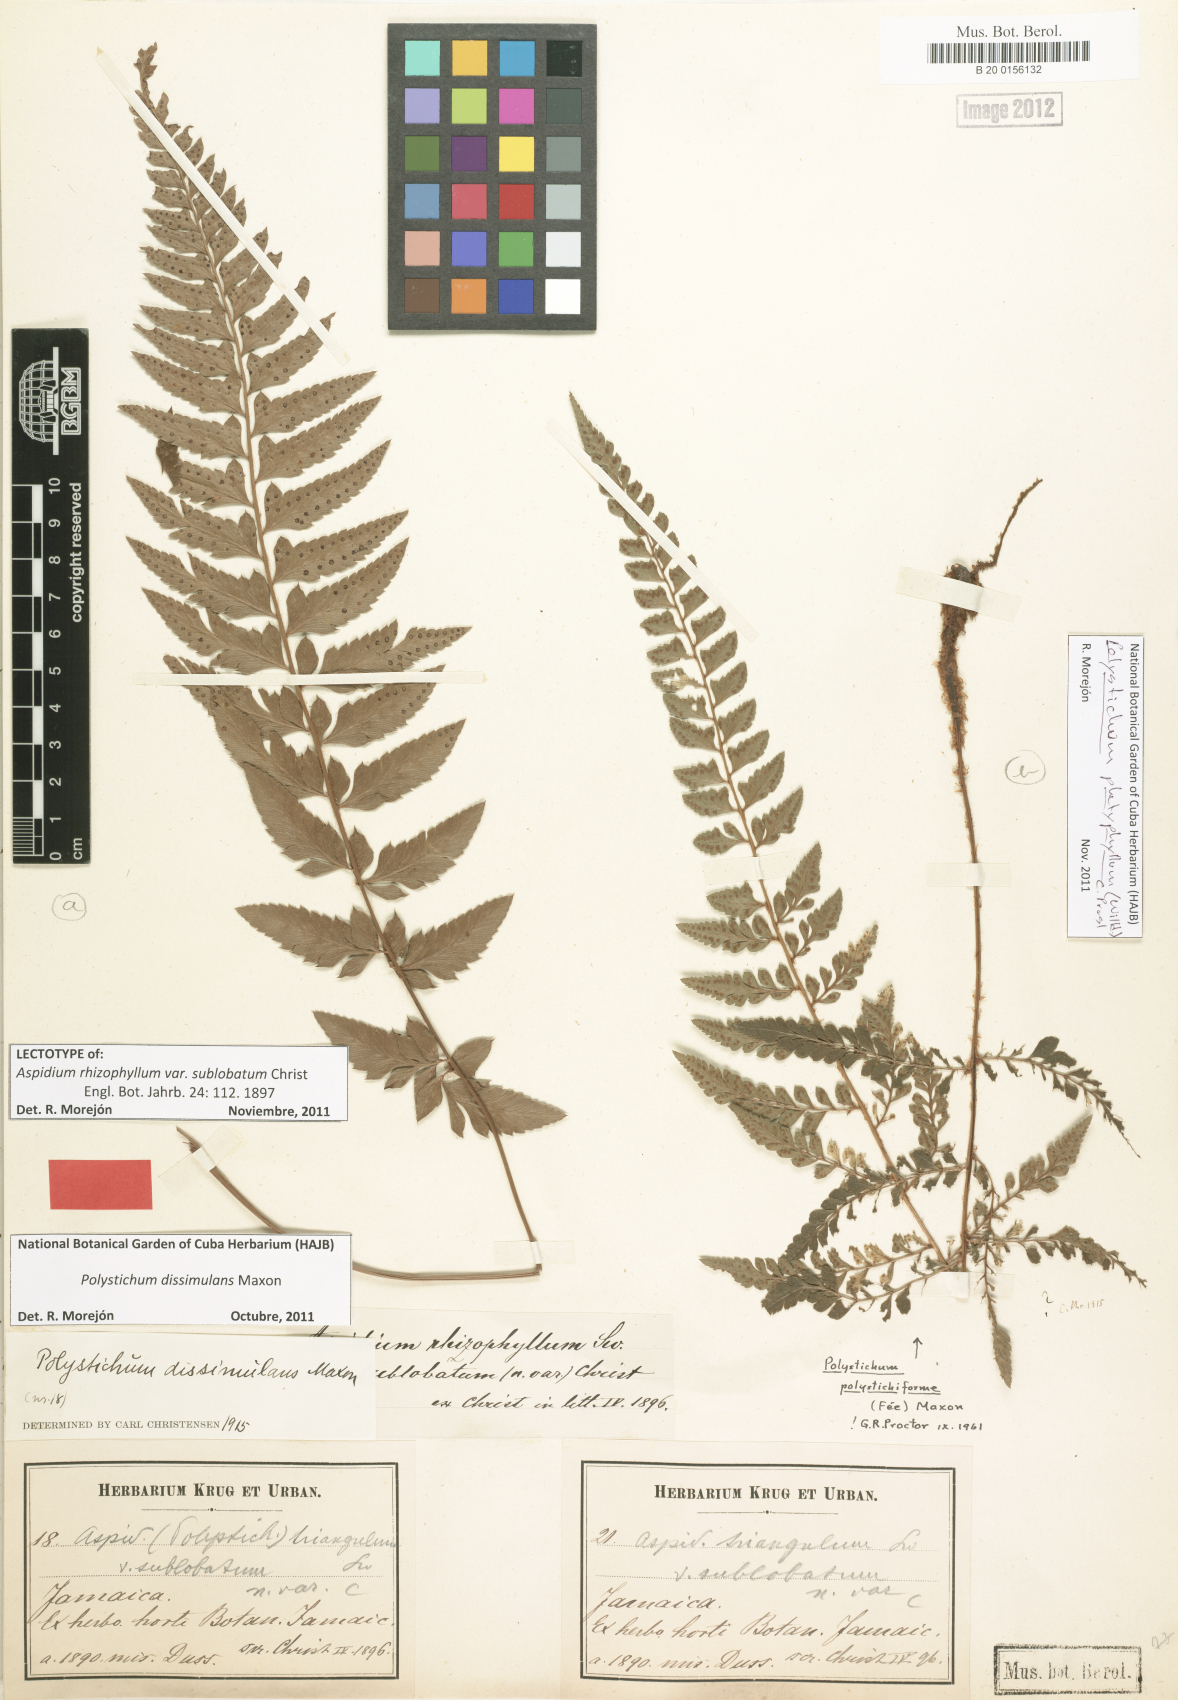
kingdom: Plantae
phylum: Tracheophyta
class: Polypodiopsida
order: Polypodiales
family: Dryopteridaceae
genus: Polystichum
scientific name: Polystichum dissimulans
